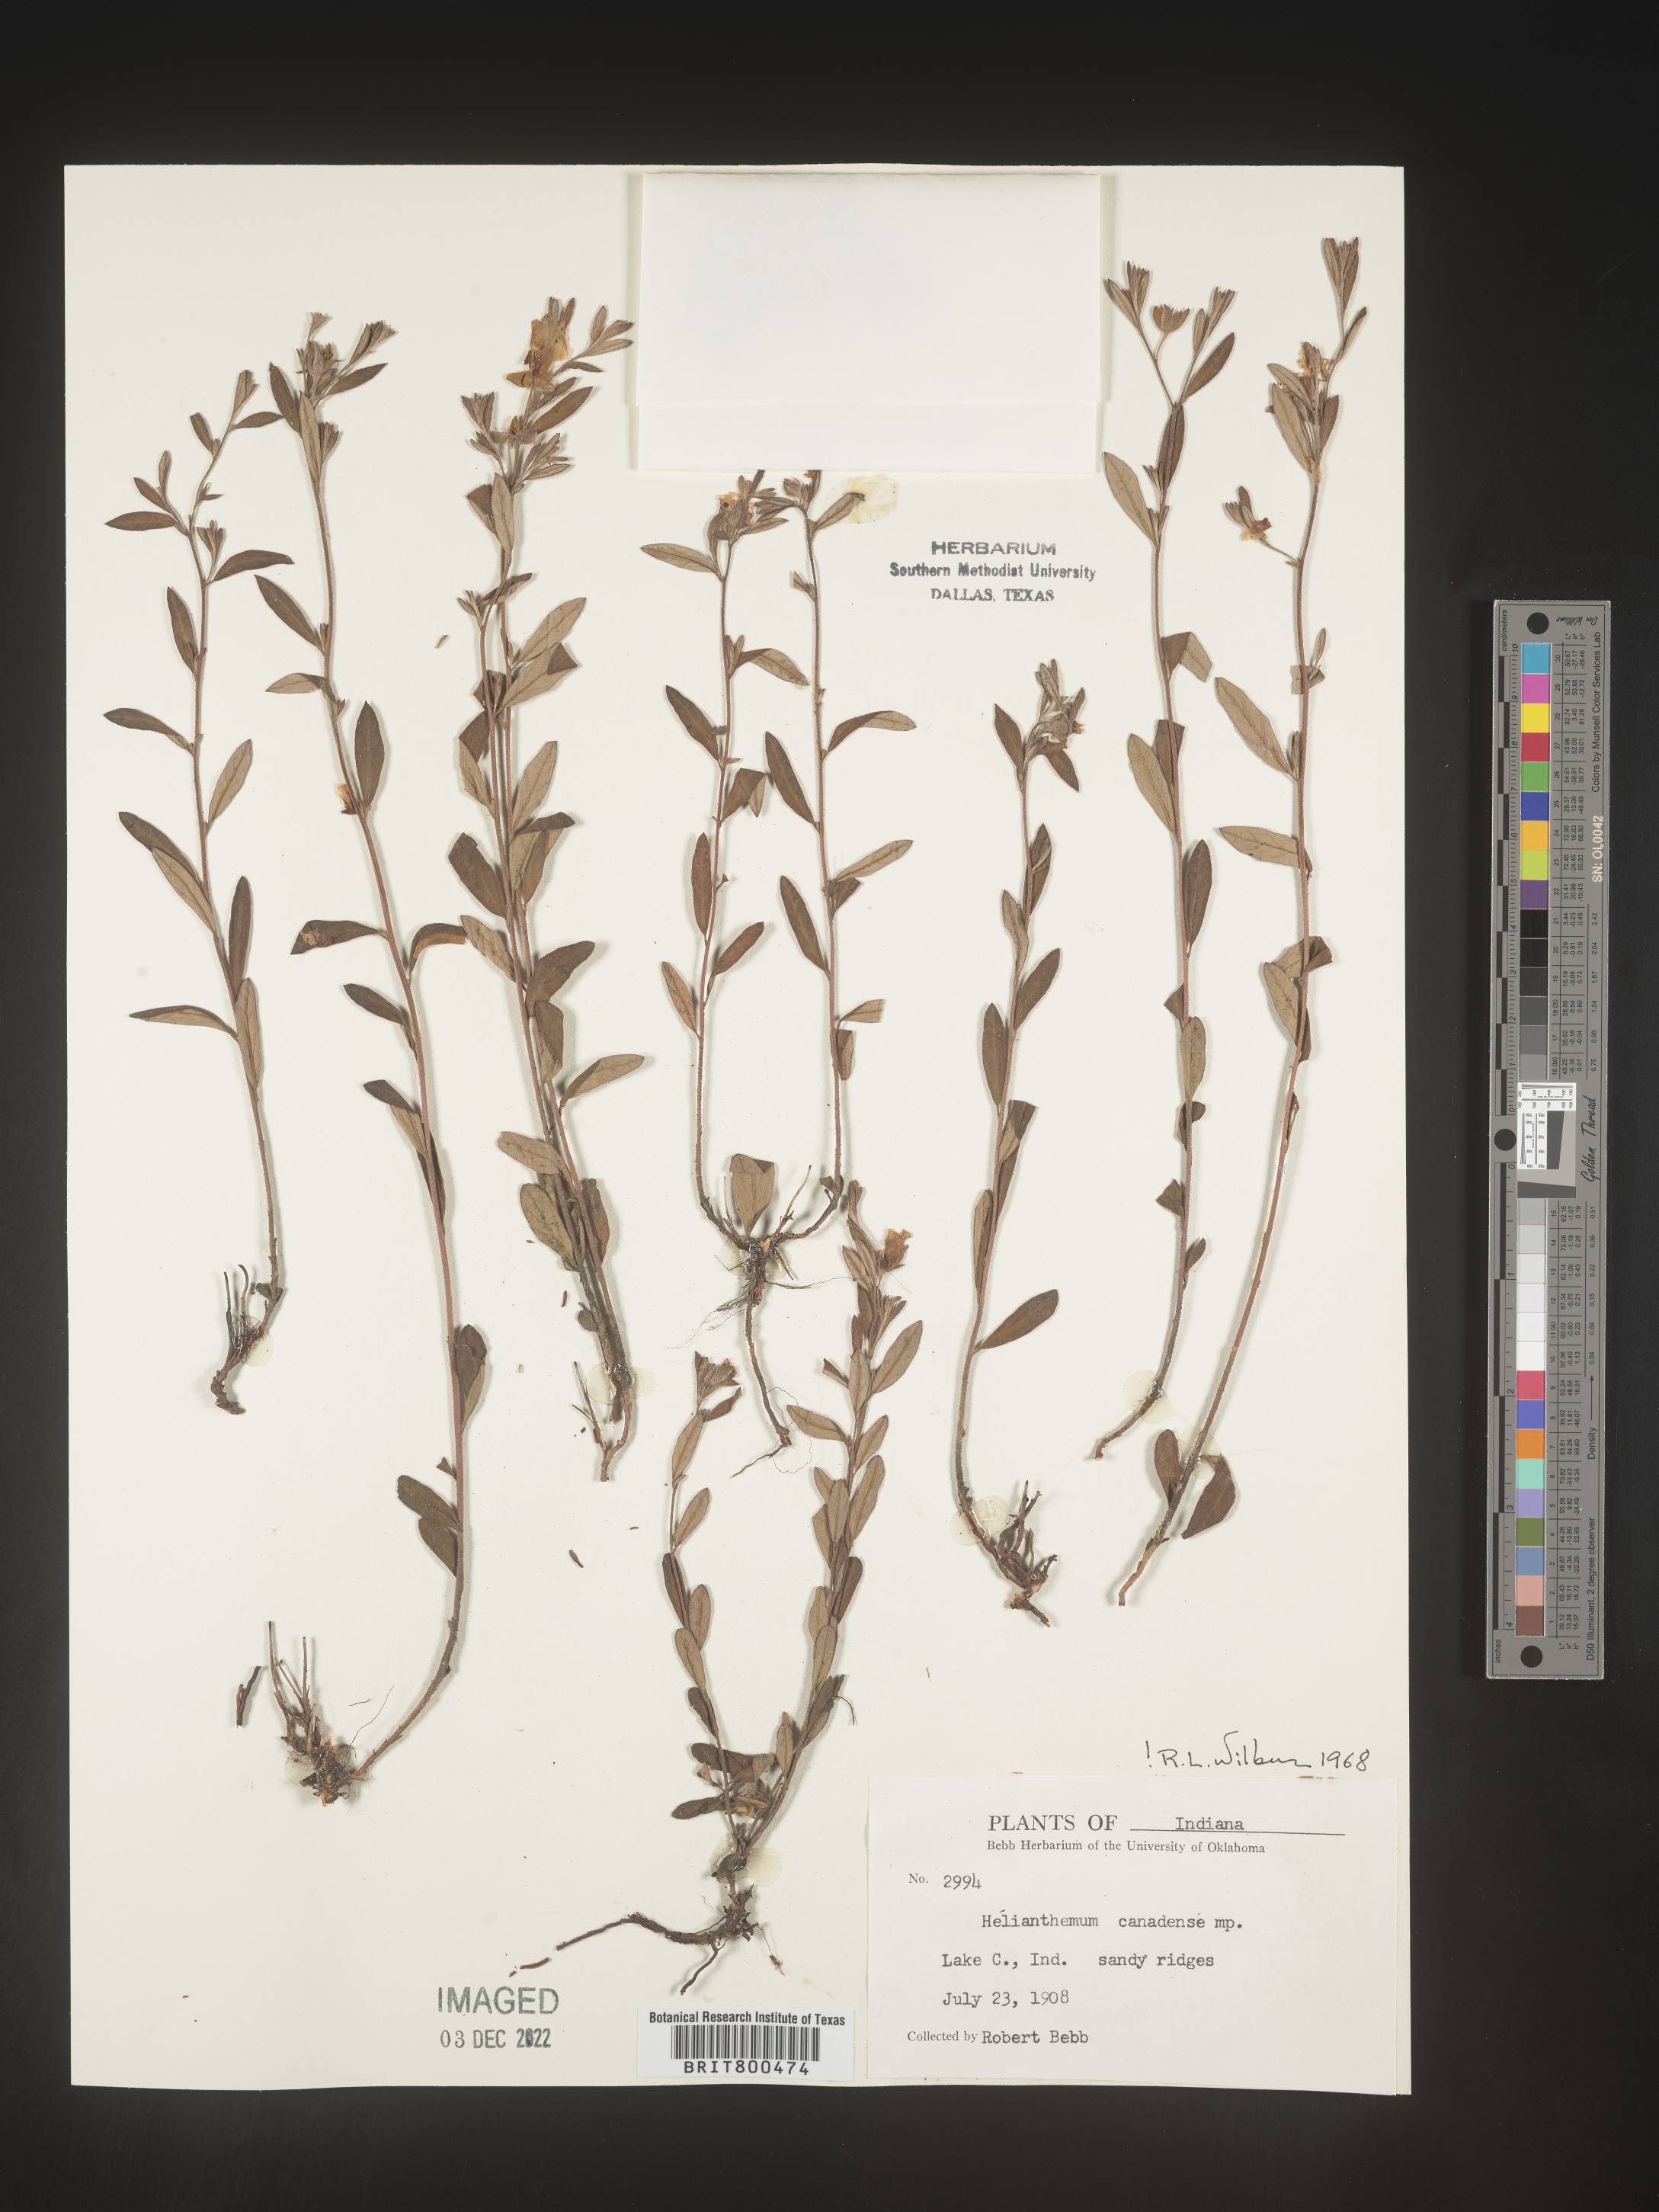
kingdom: Plantae
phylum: Tracheophyta
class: Magnoliopsida
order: Malvales
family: Cistaceae
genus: Crocanthemum
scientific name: Crocanthemum canadense
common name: Canada frostweed
